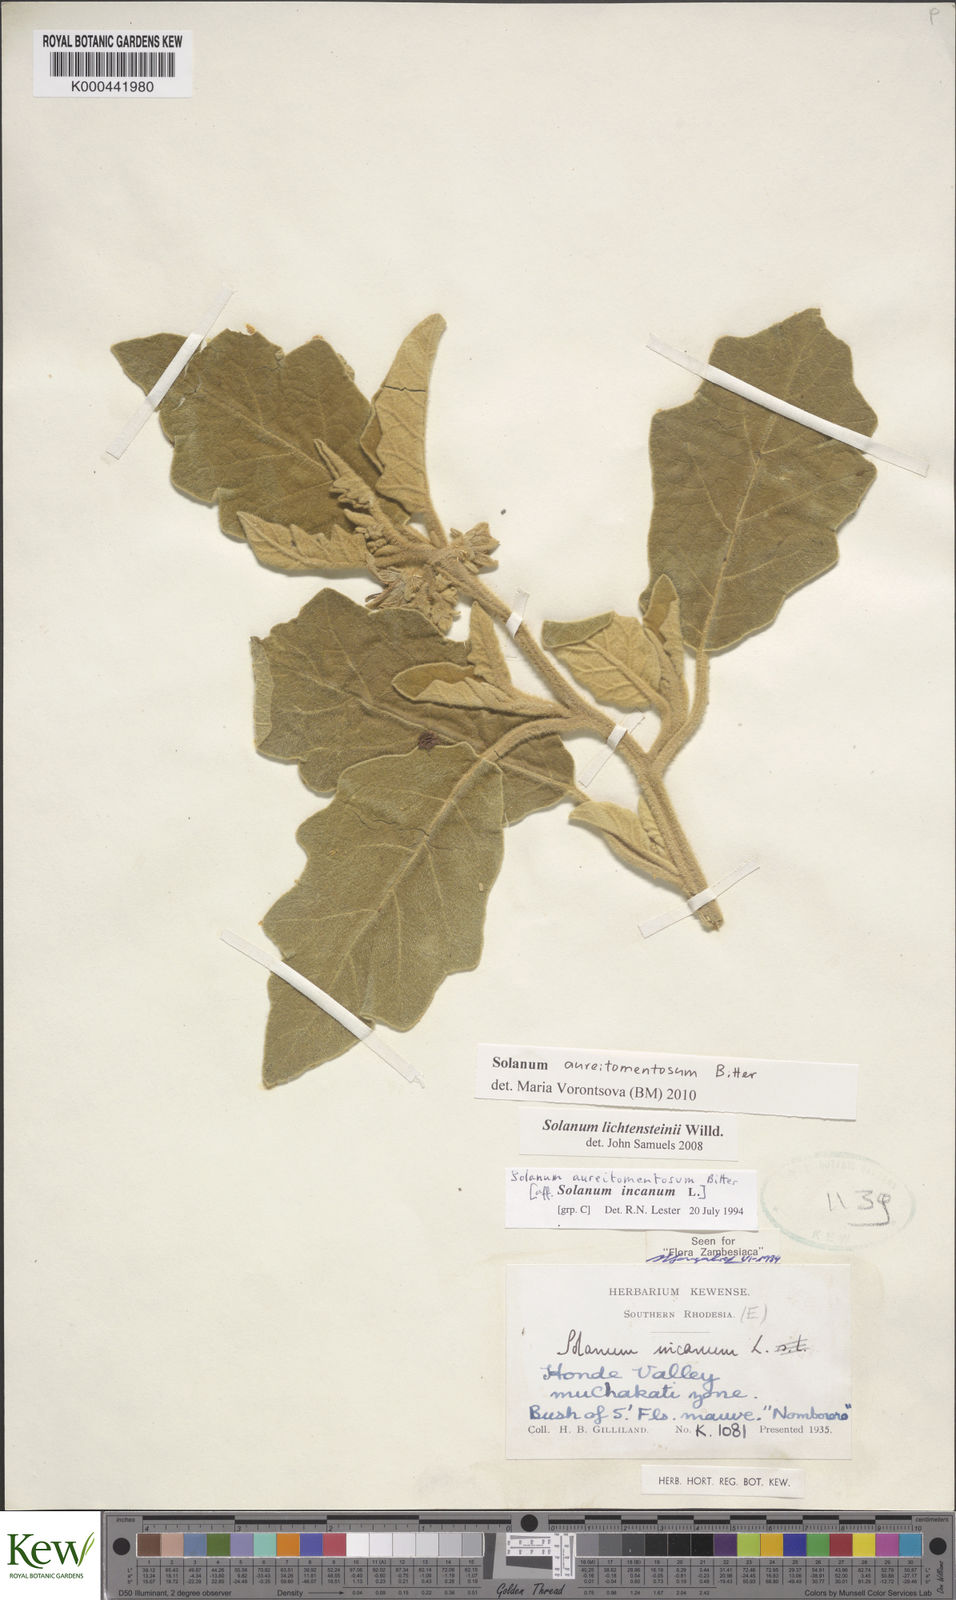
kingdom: Plantae
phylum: Tracheophyta
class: Magnoliopsida
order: Solanales
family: Solanaceae
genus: Solanum
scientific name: Solanum aureitomentosum
